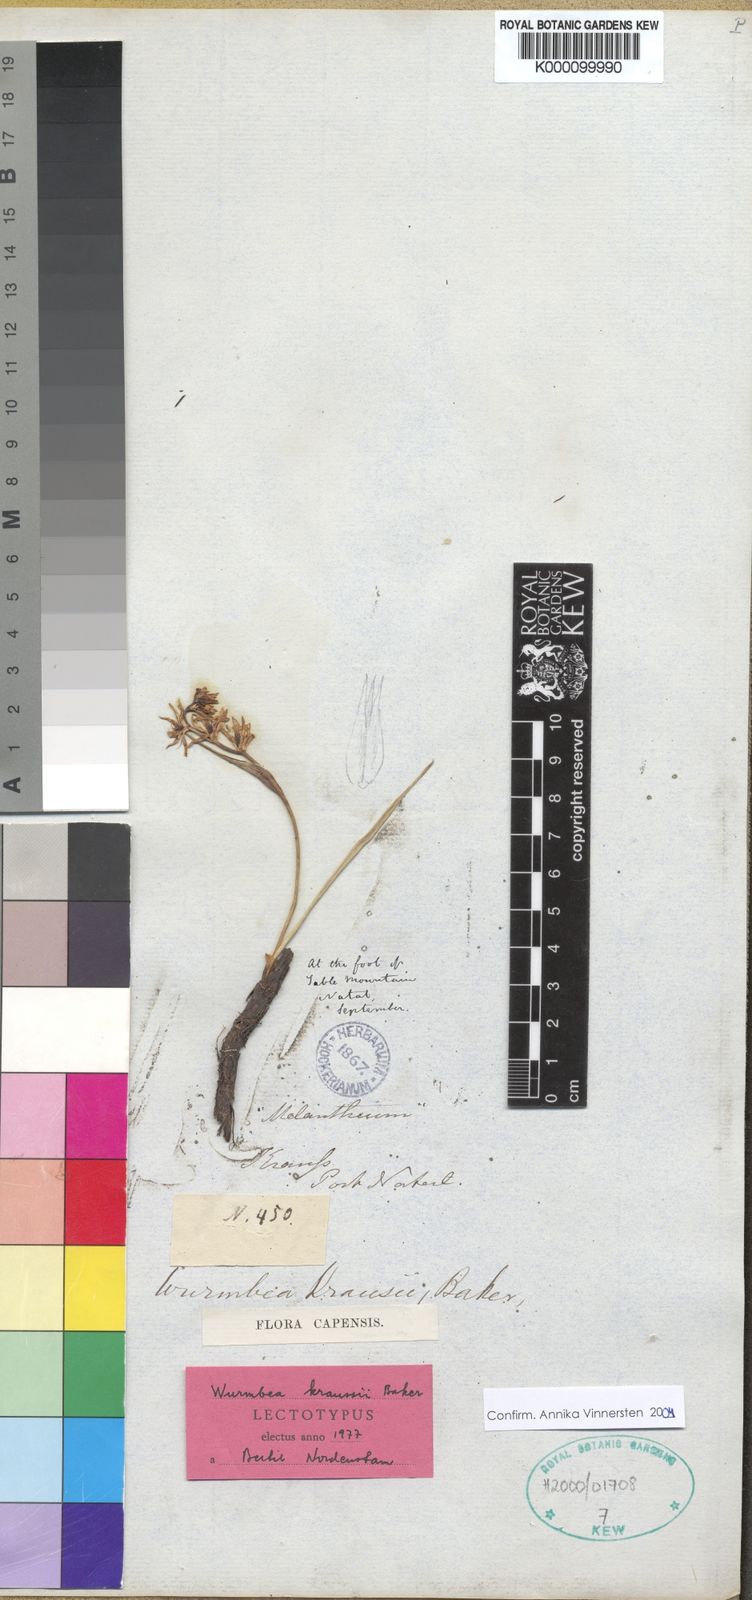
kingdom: Plantae
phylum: Tracheophyta
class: Liliopsida
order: Liliales
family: Colchicaceae
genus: Wurmbea
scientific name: Wurmbea kraussii
